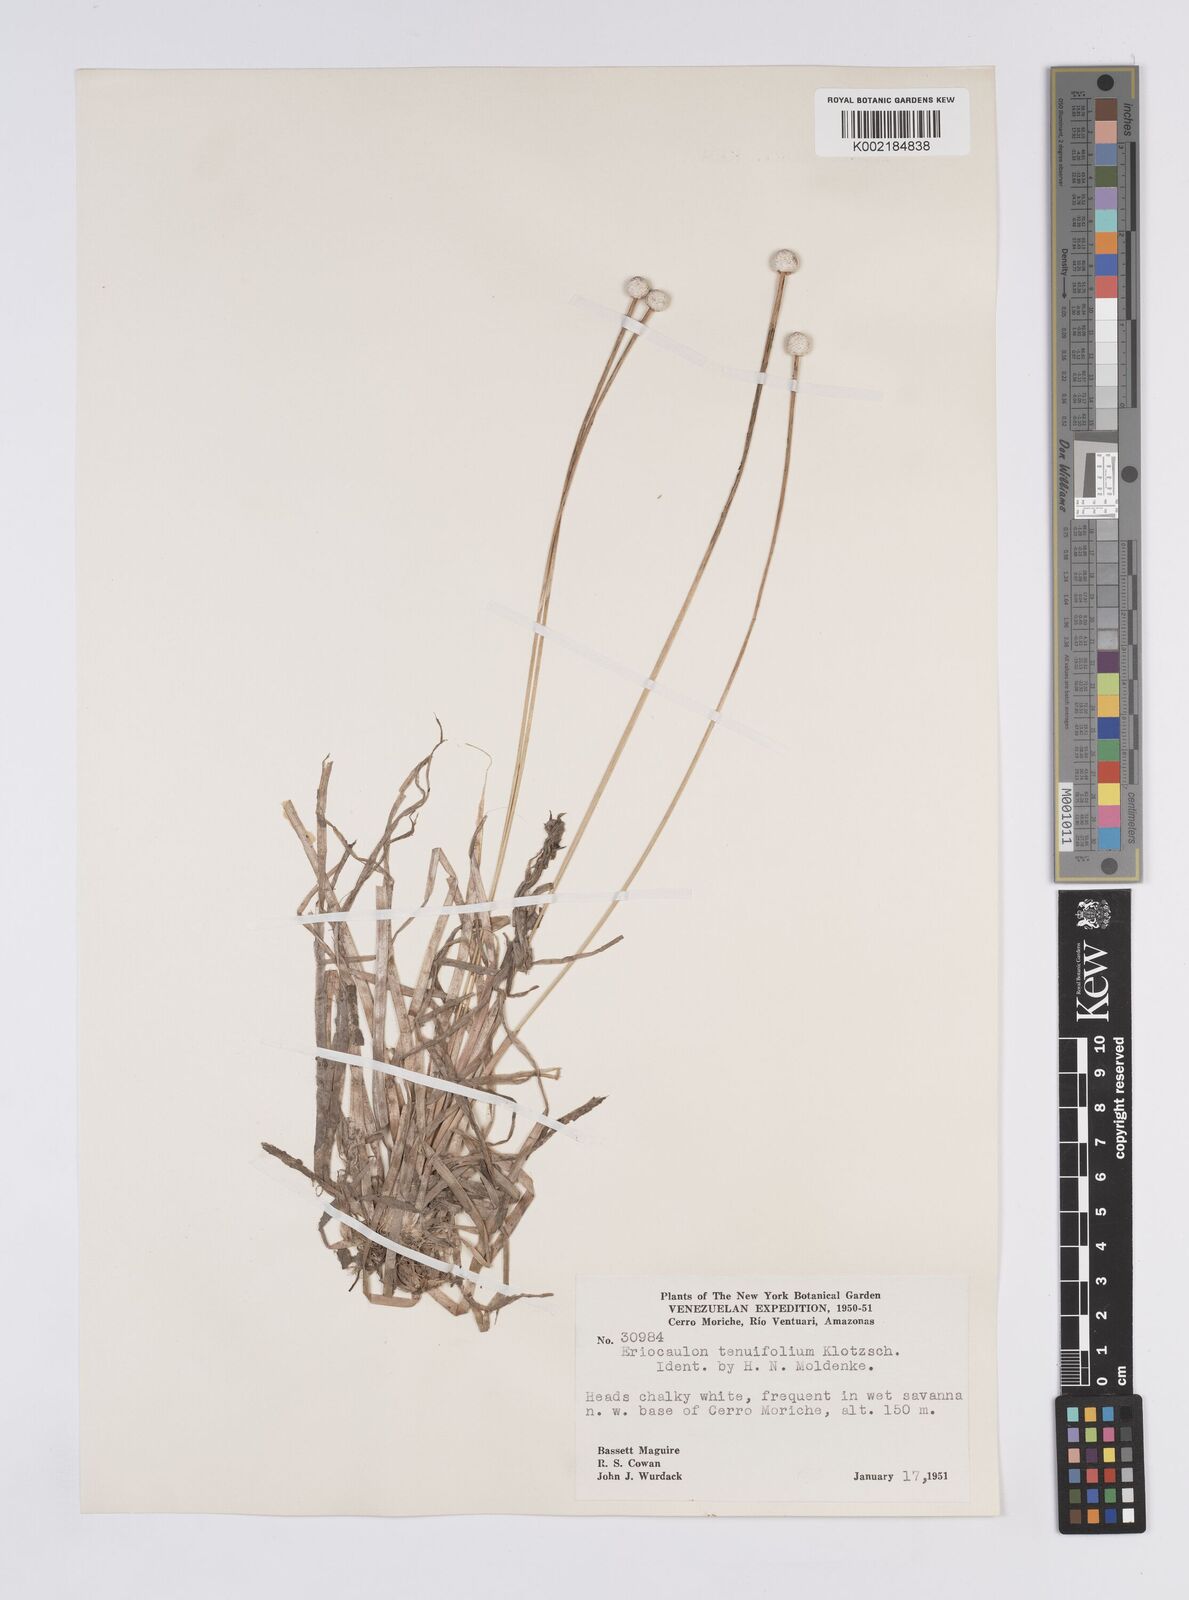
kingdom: Plantae
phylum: Tracheophyta
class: Liliopsida
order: Poales
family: Eriocaulaceae
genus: Eriocaulon
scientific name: Eriocaulon tenuifolium
